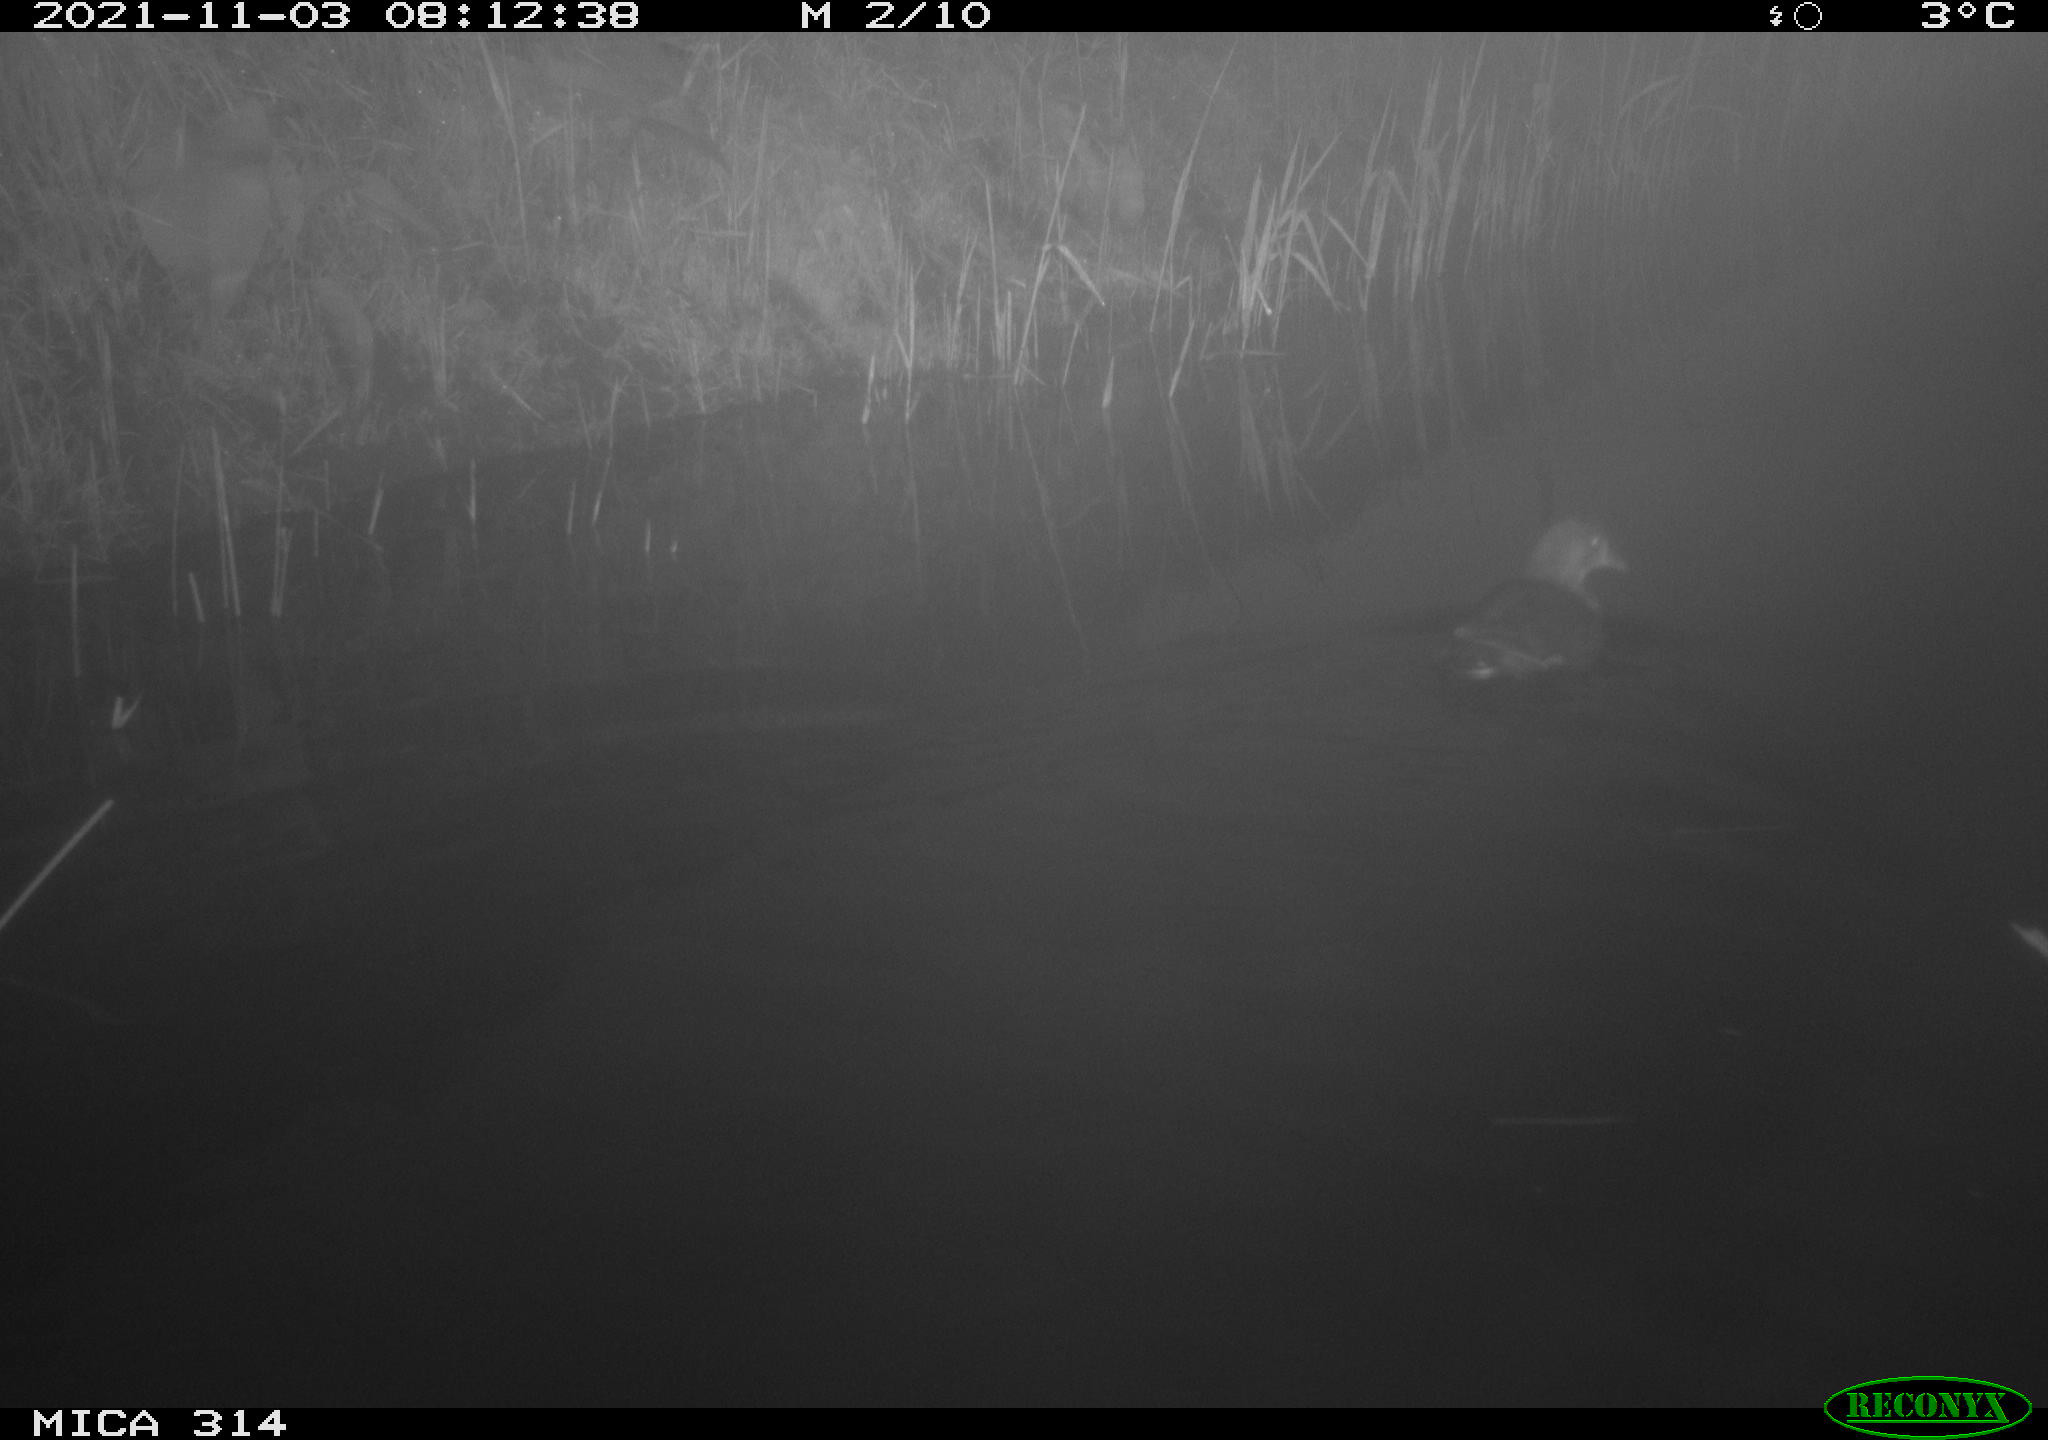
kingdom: Animalia
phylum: Chordata
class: Aves
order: Gruiformes
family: Rallidae
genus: Gallinula
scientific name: Gallinula chloropus
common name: Common moorhen
